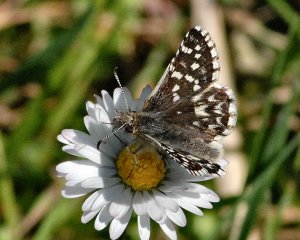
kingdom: Animalia
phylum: Arthropoda
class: Insecta
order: Lepidoptera
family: Hesperiidae
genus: Pyrgus
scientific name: Pyrgus ruralis
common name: Two-banded Checkered-Skipper
